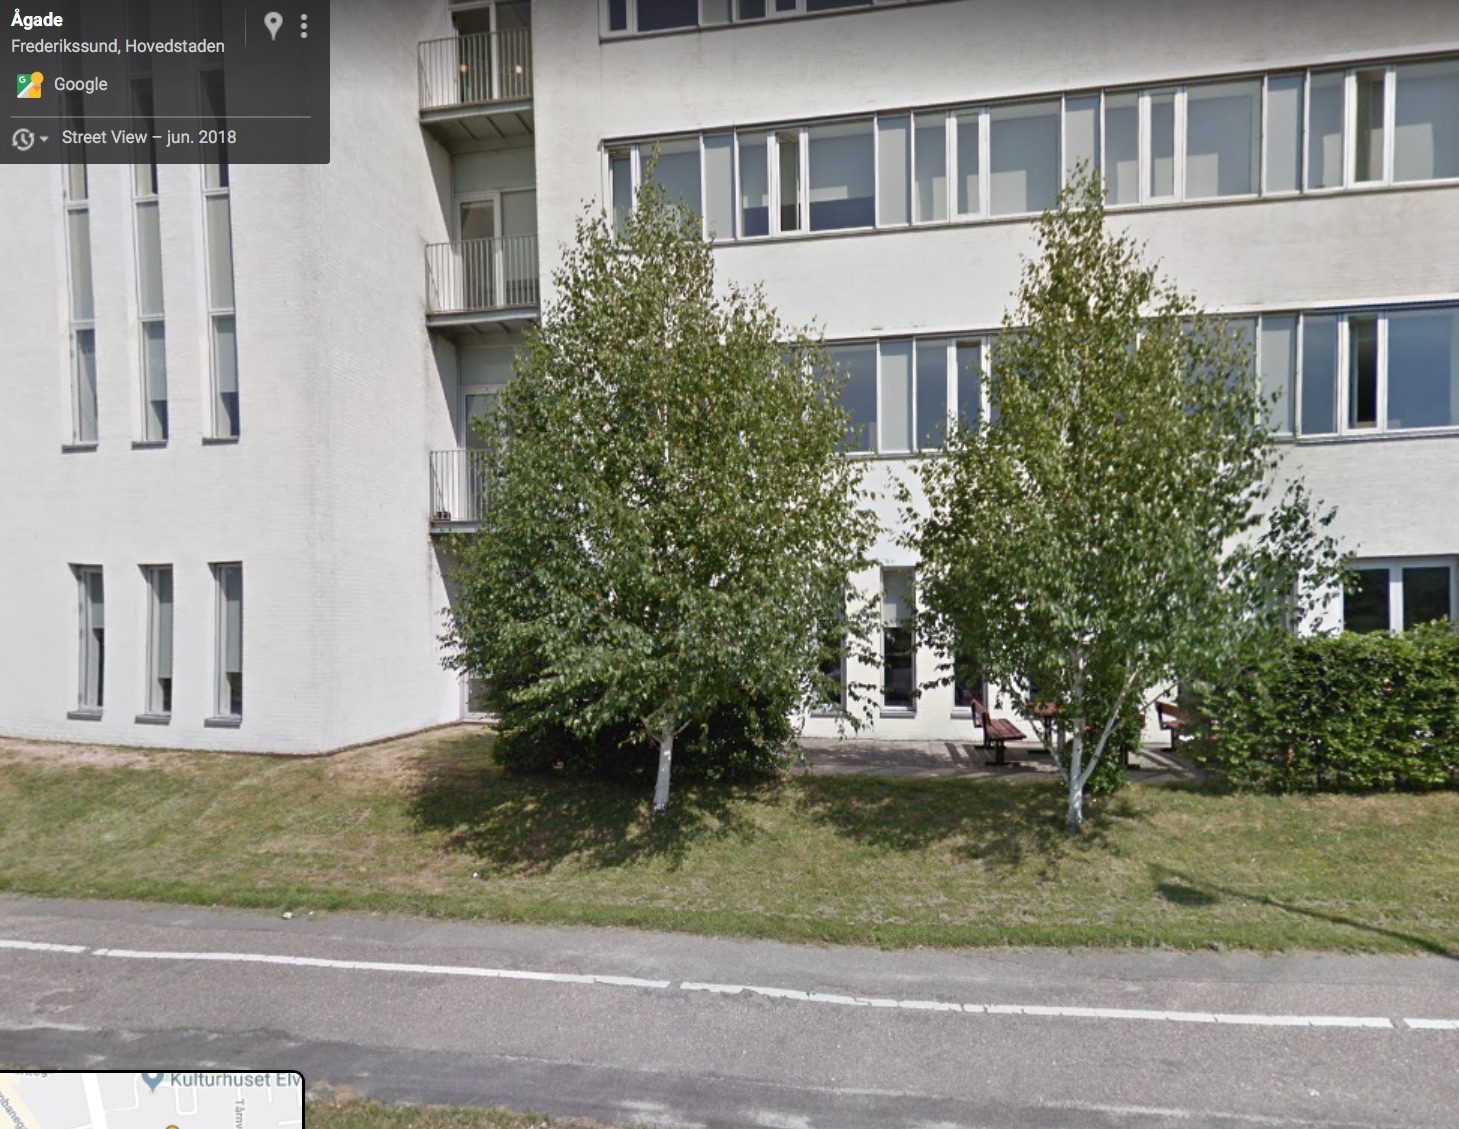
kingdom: Fungi
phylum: Basidiomycota
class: Agaricomycetes
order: Boletales
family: Boletaceae
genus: Leccinum
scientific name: Leccinum scabrum
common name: brun skælrørhat
